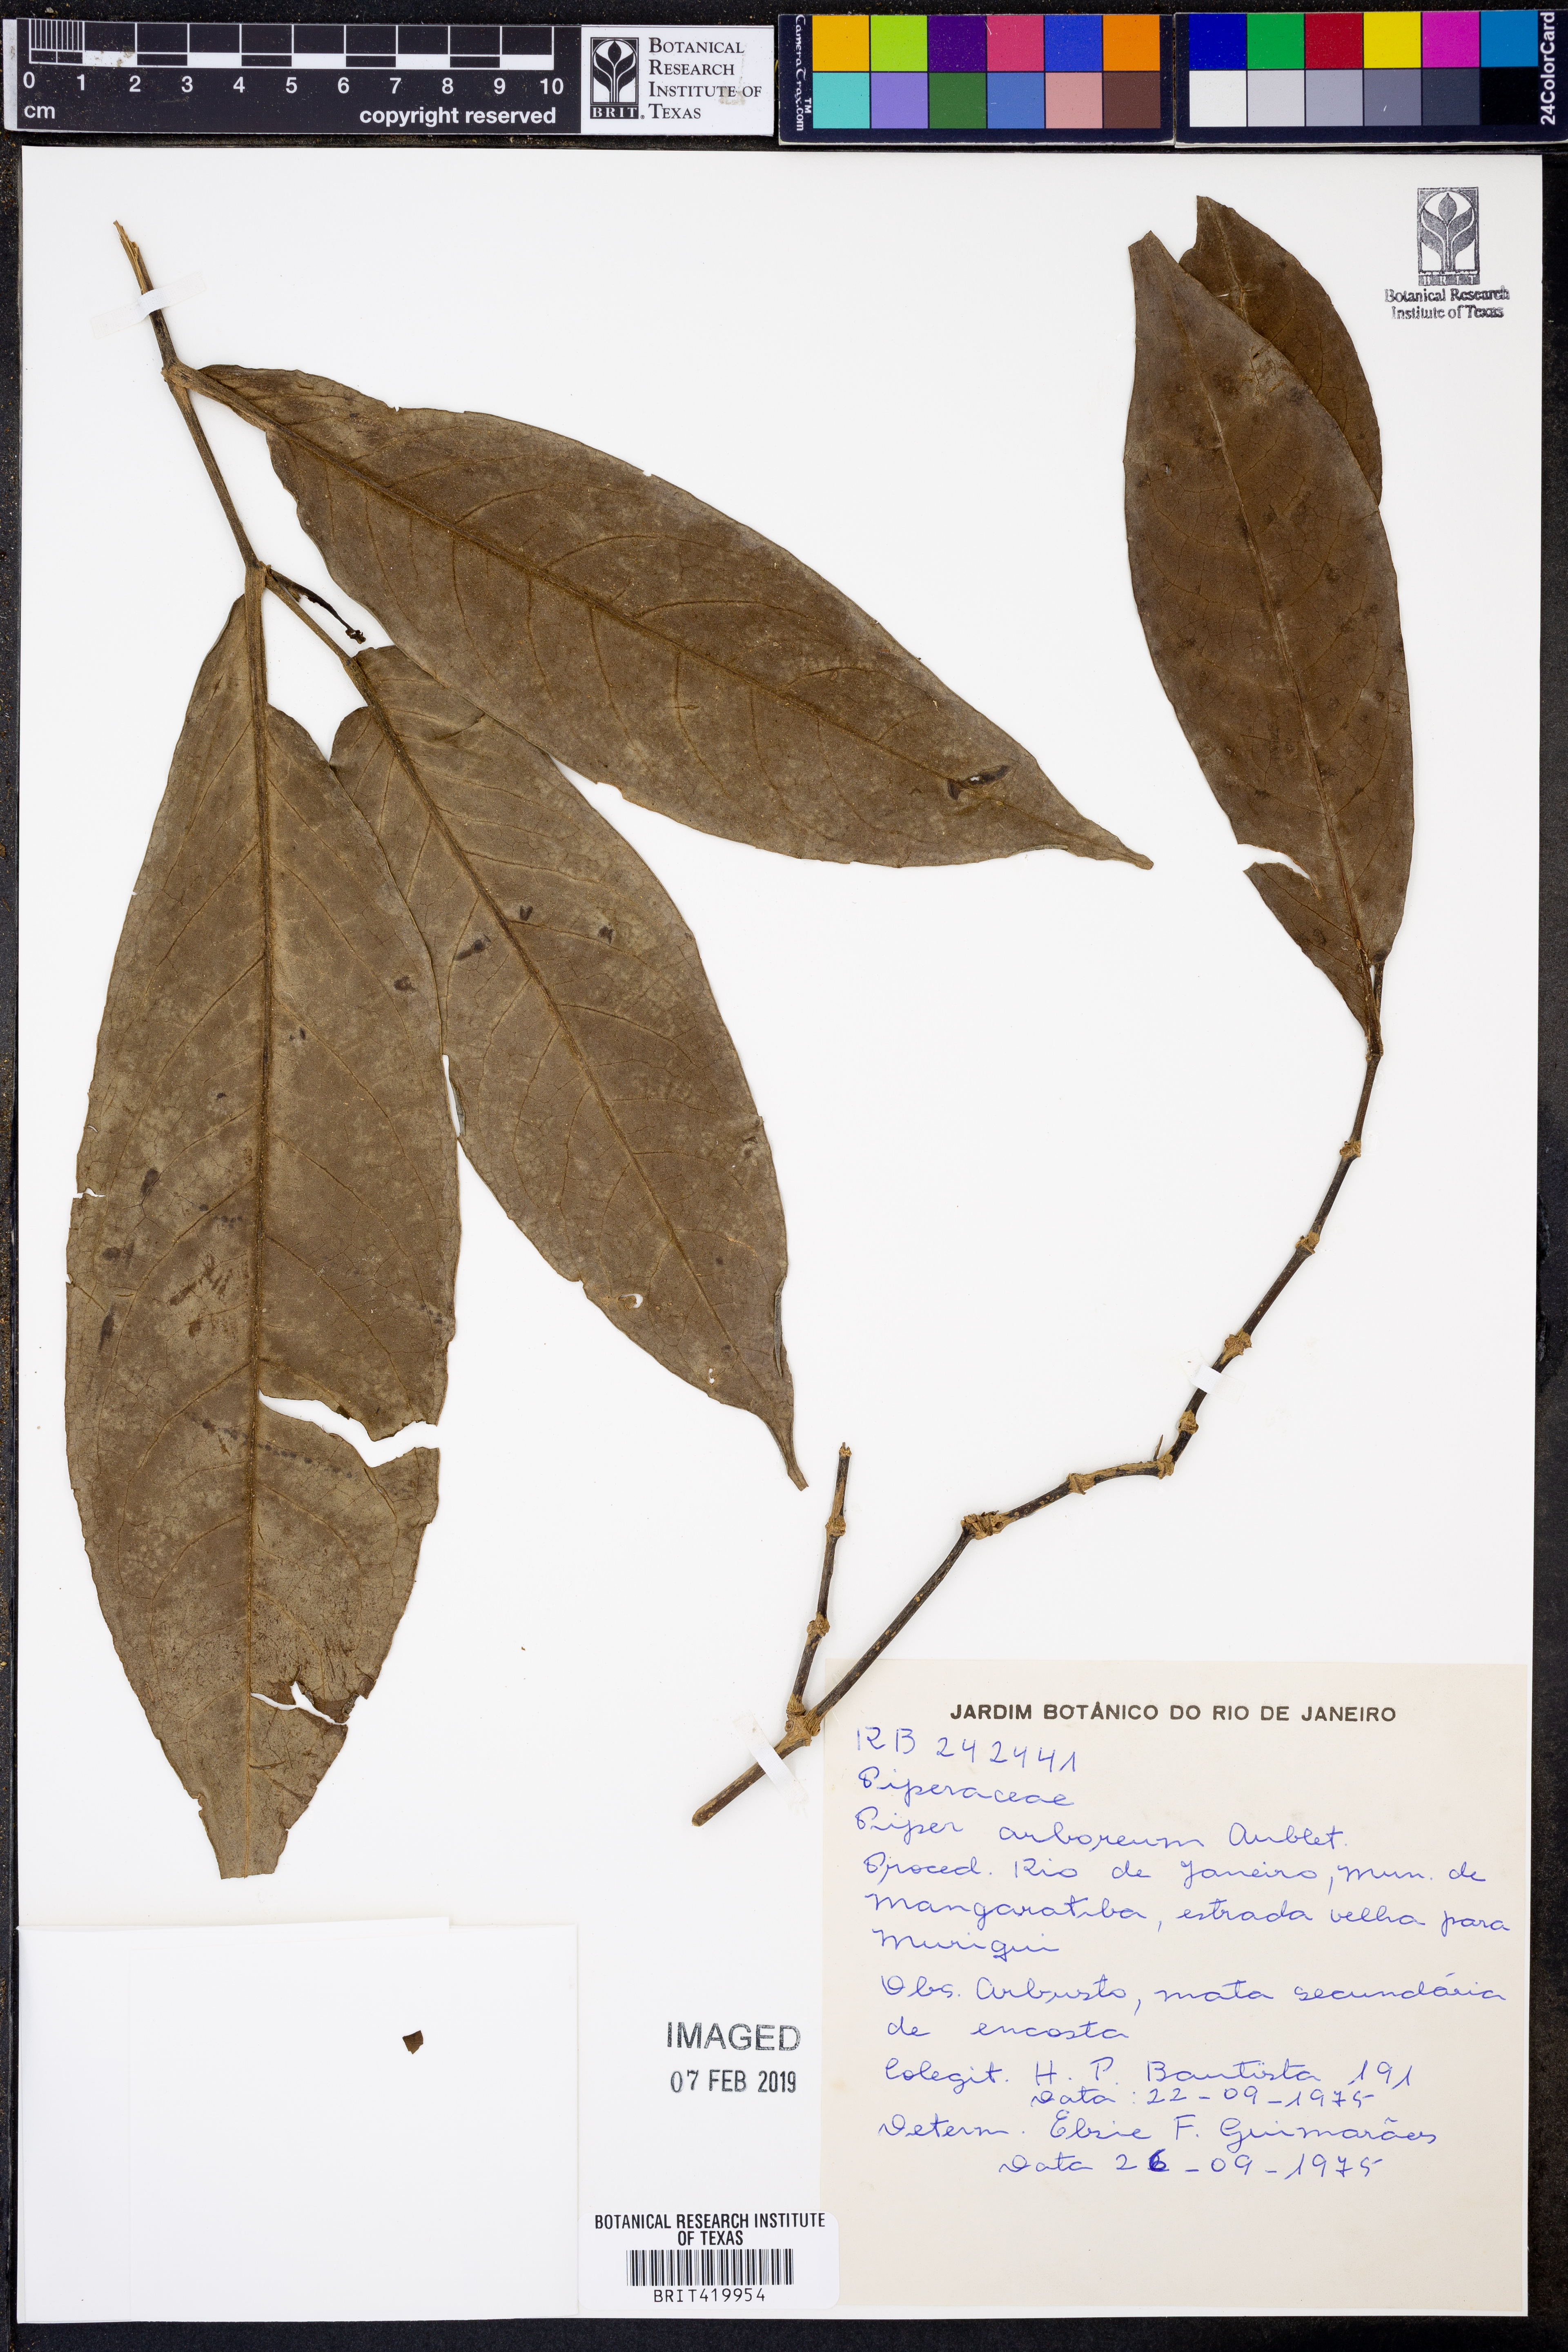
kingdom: Plantae
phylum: Tracheophyta
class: Magnoliopsida
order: Piperales
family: Piperaceae
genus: Piper
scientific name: Piper arboreum
